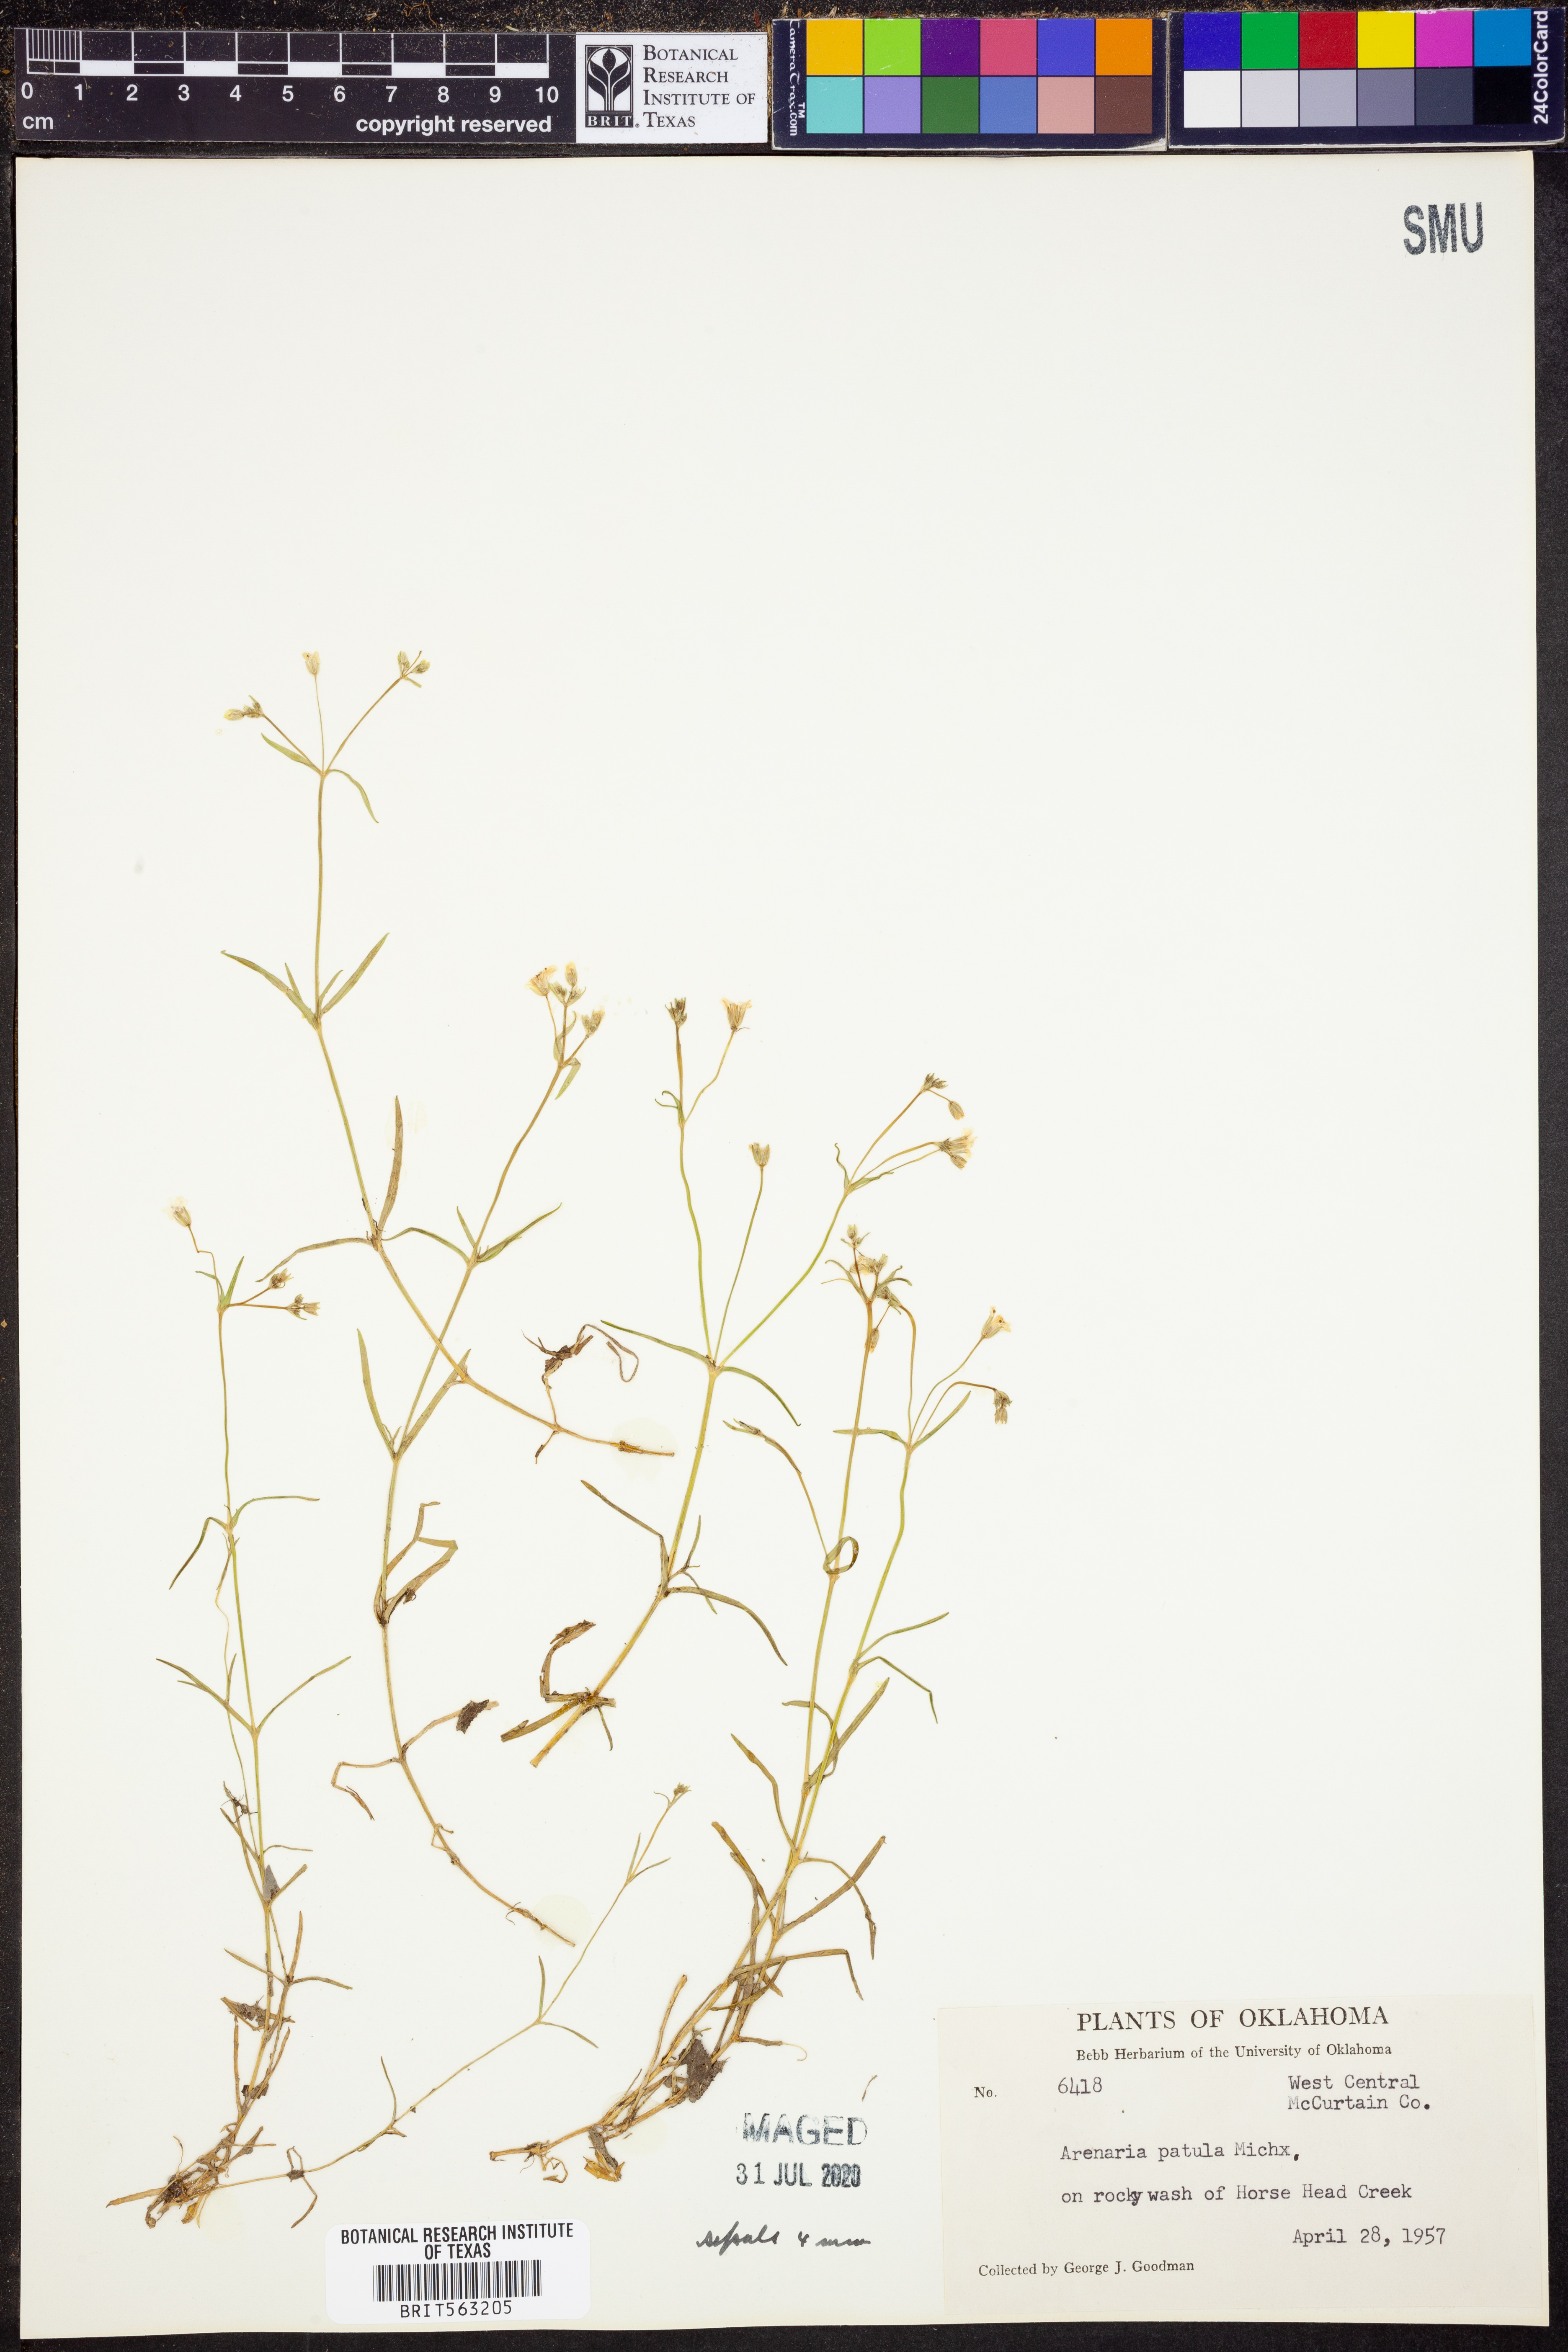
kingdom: Plantae
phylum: Tracheophyta
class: Magnoliopsida
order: Caryophyllales
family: Caryophyllaceae
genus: Mononeuria
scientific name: Mononeuria patula
